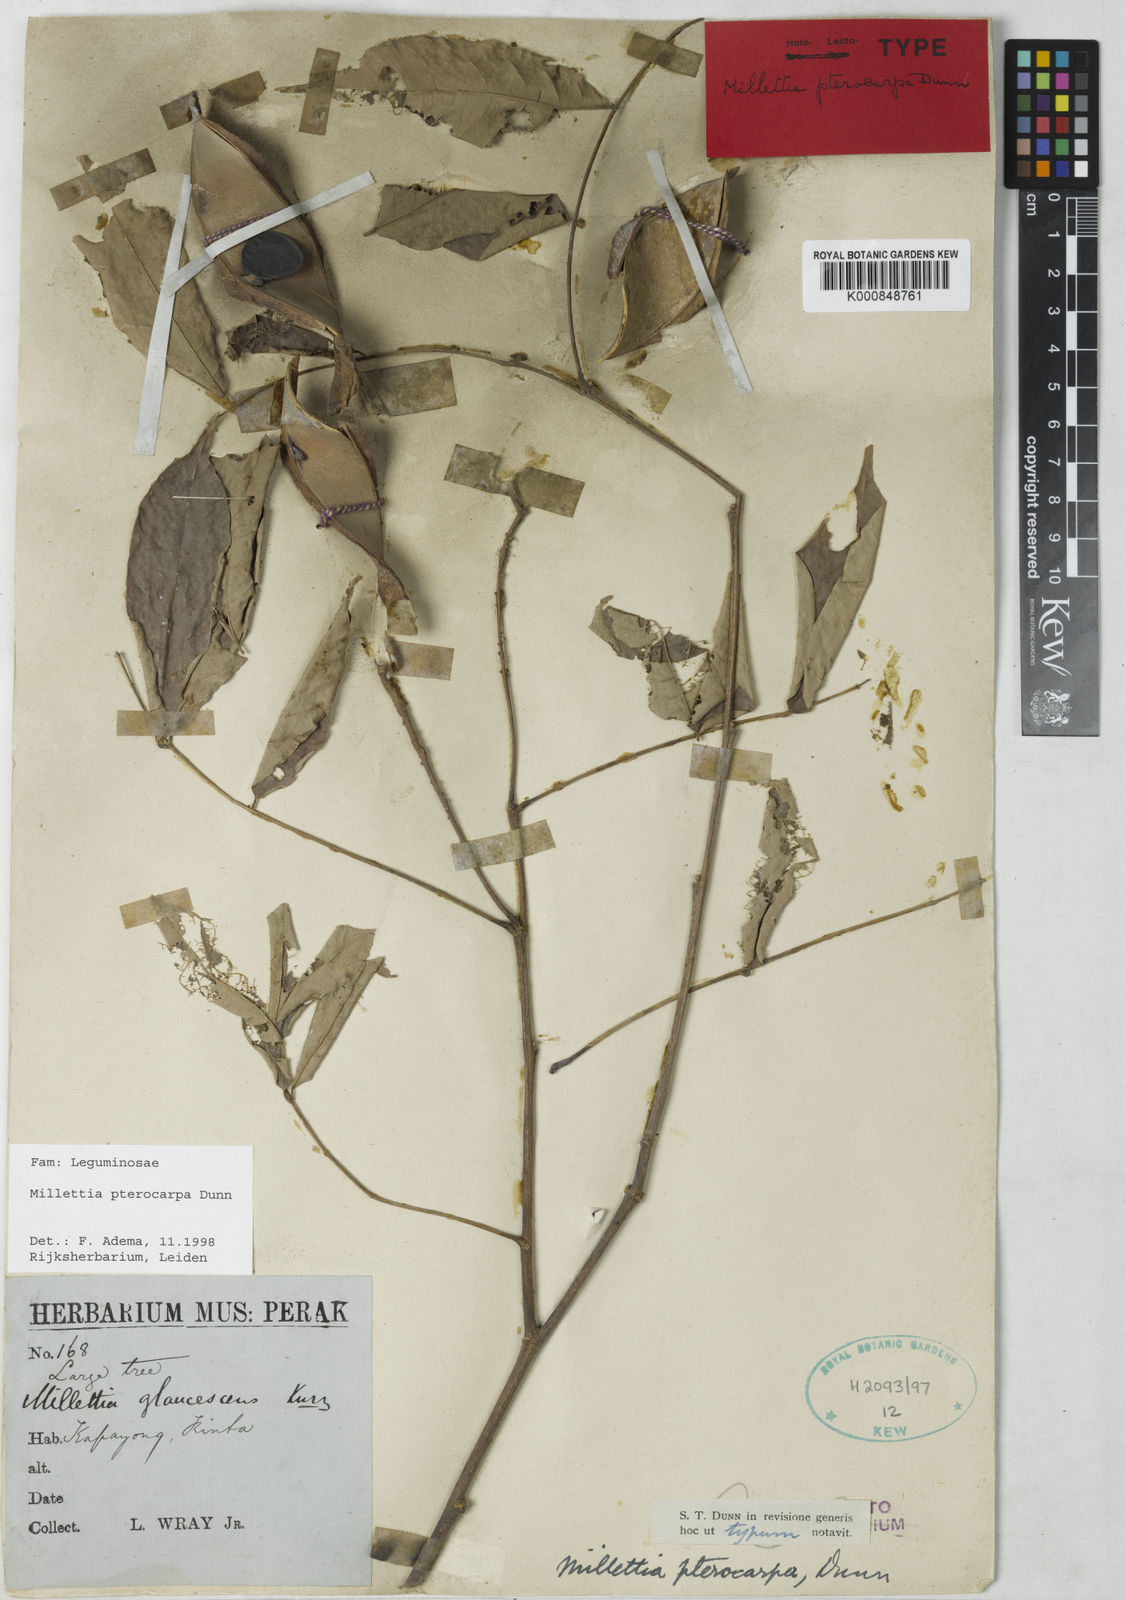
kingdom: Plantae
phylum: Tracheophyta
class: Magnoliopsida
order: Fabales
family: Fabaceae
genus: Millettia
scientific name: Millettia pterocarpa
